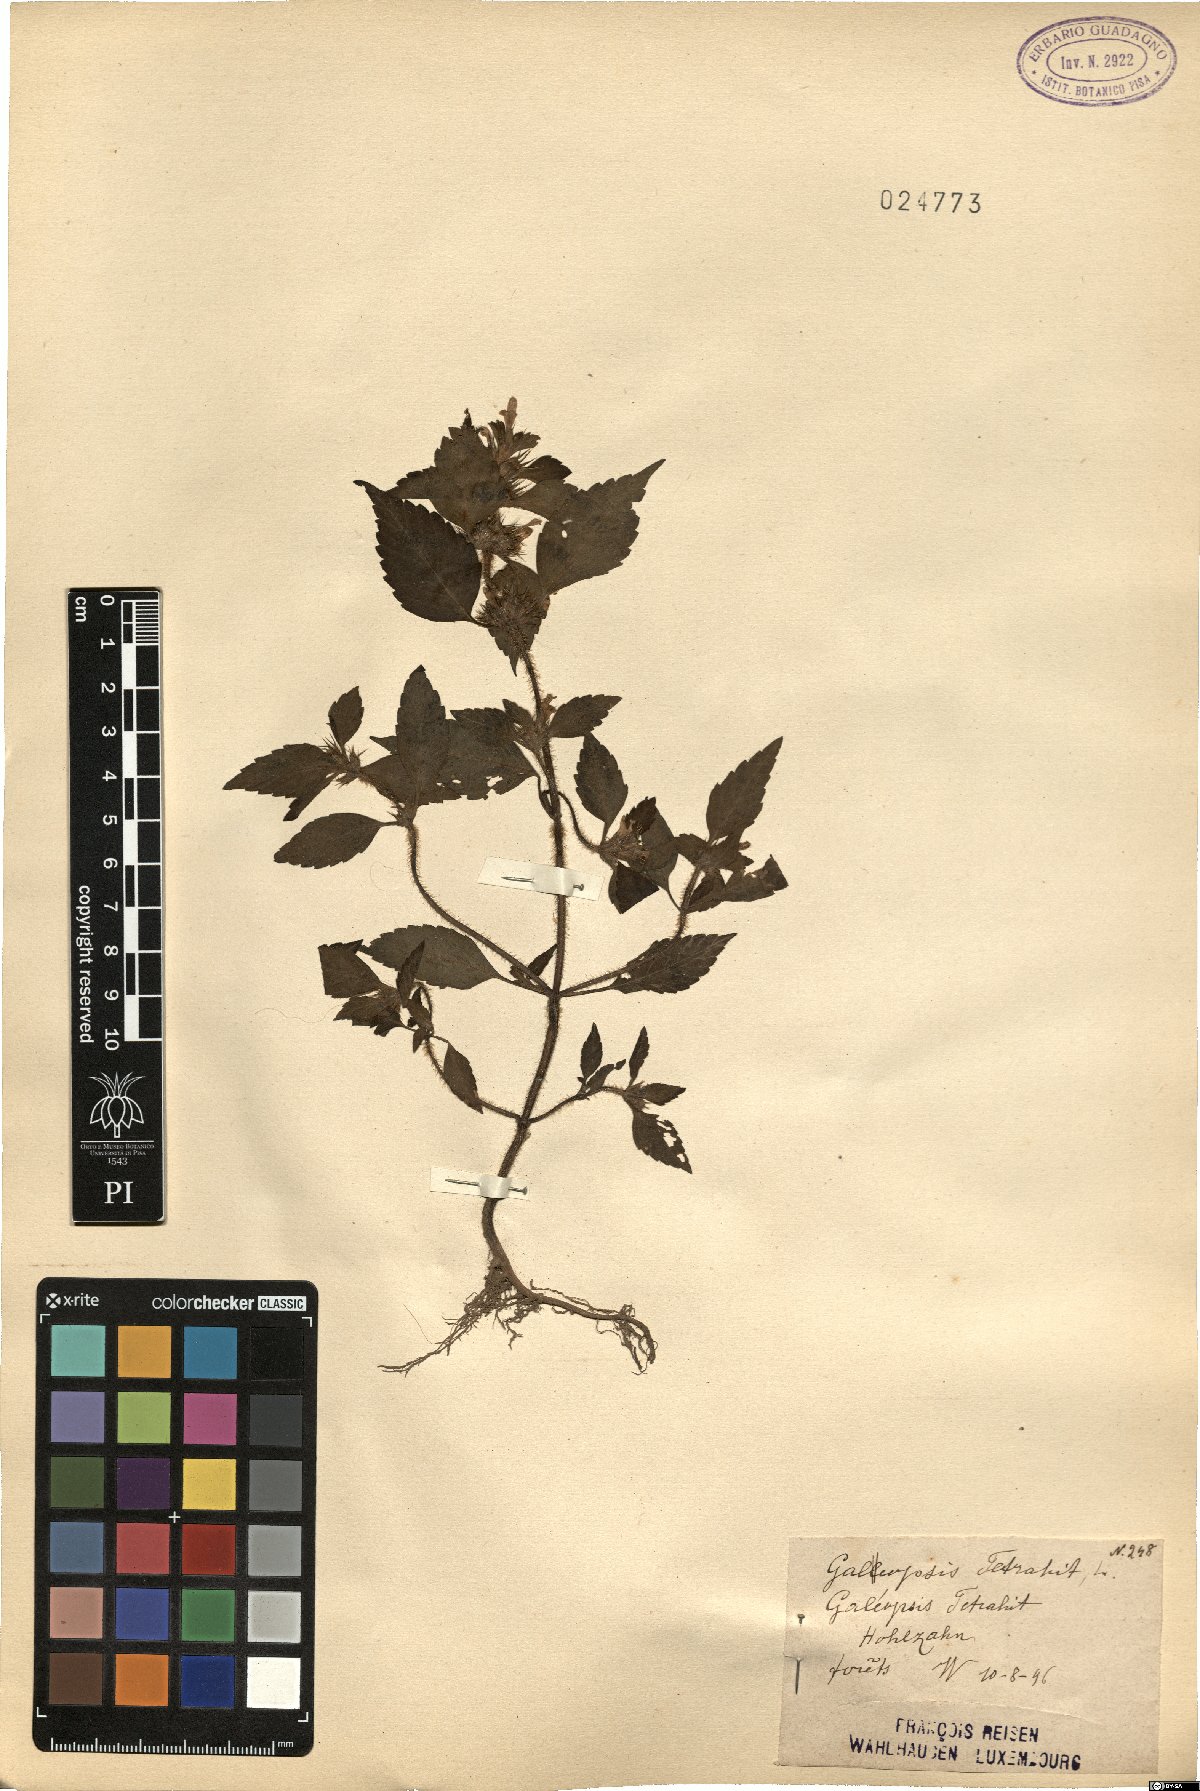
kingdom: Plantae
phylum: Tracheophyta
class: Magnoliopsida
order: Lamiales
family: Lamiaceae
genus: Galeopsis
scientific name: Galeopsis tetrahit
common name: Common hemp-nettle
